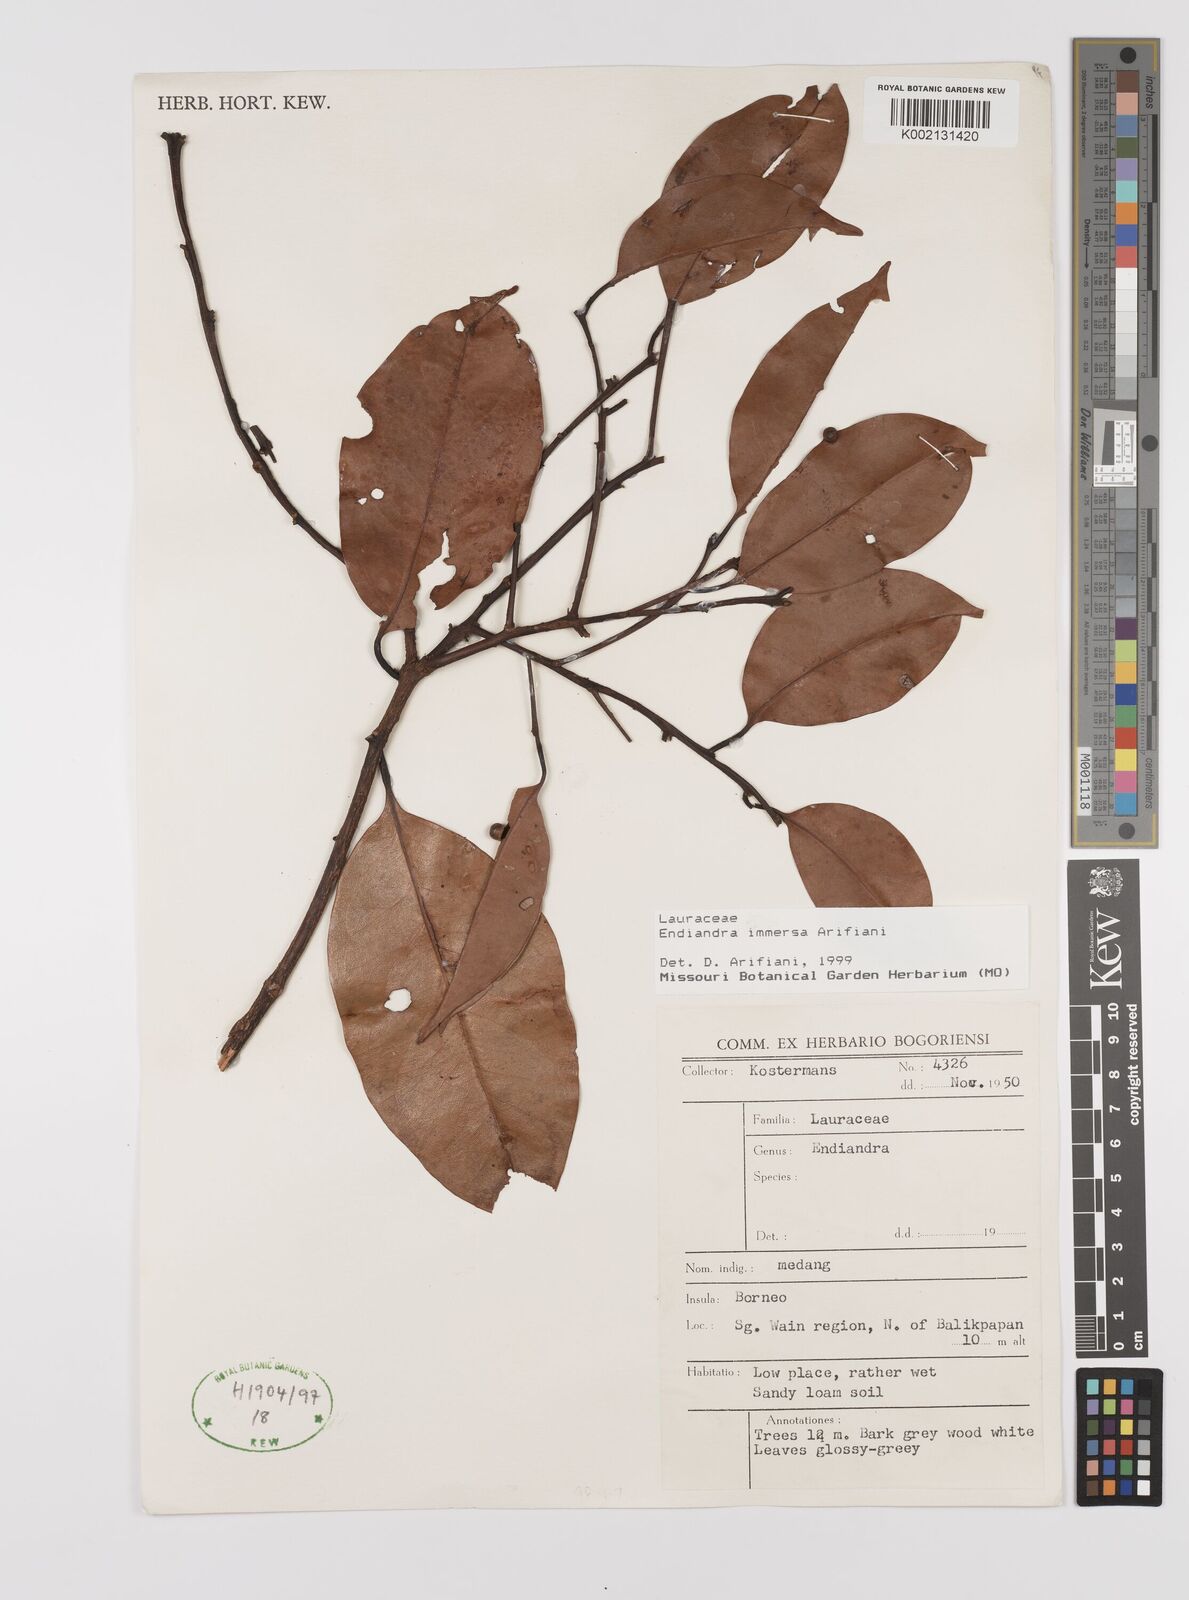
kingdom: Plantae
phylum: Tracheophyta
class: Magnoliopsida
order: Laurales
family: Lauraceae
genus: Endiandra
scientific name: Endiandra immersa
